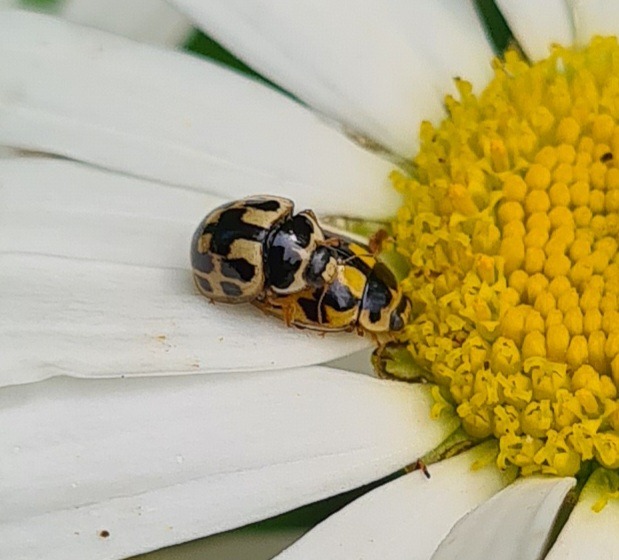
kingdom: Animalia
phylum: Arthropoda
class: Insecta
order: Coleoptera
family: Coccinellidae
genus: Propylaea
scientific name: Propylaea quatuordecimpunctata
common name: Skakbræt
